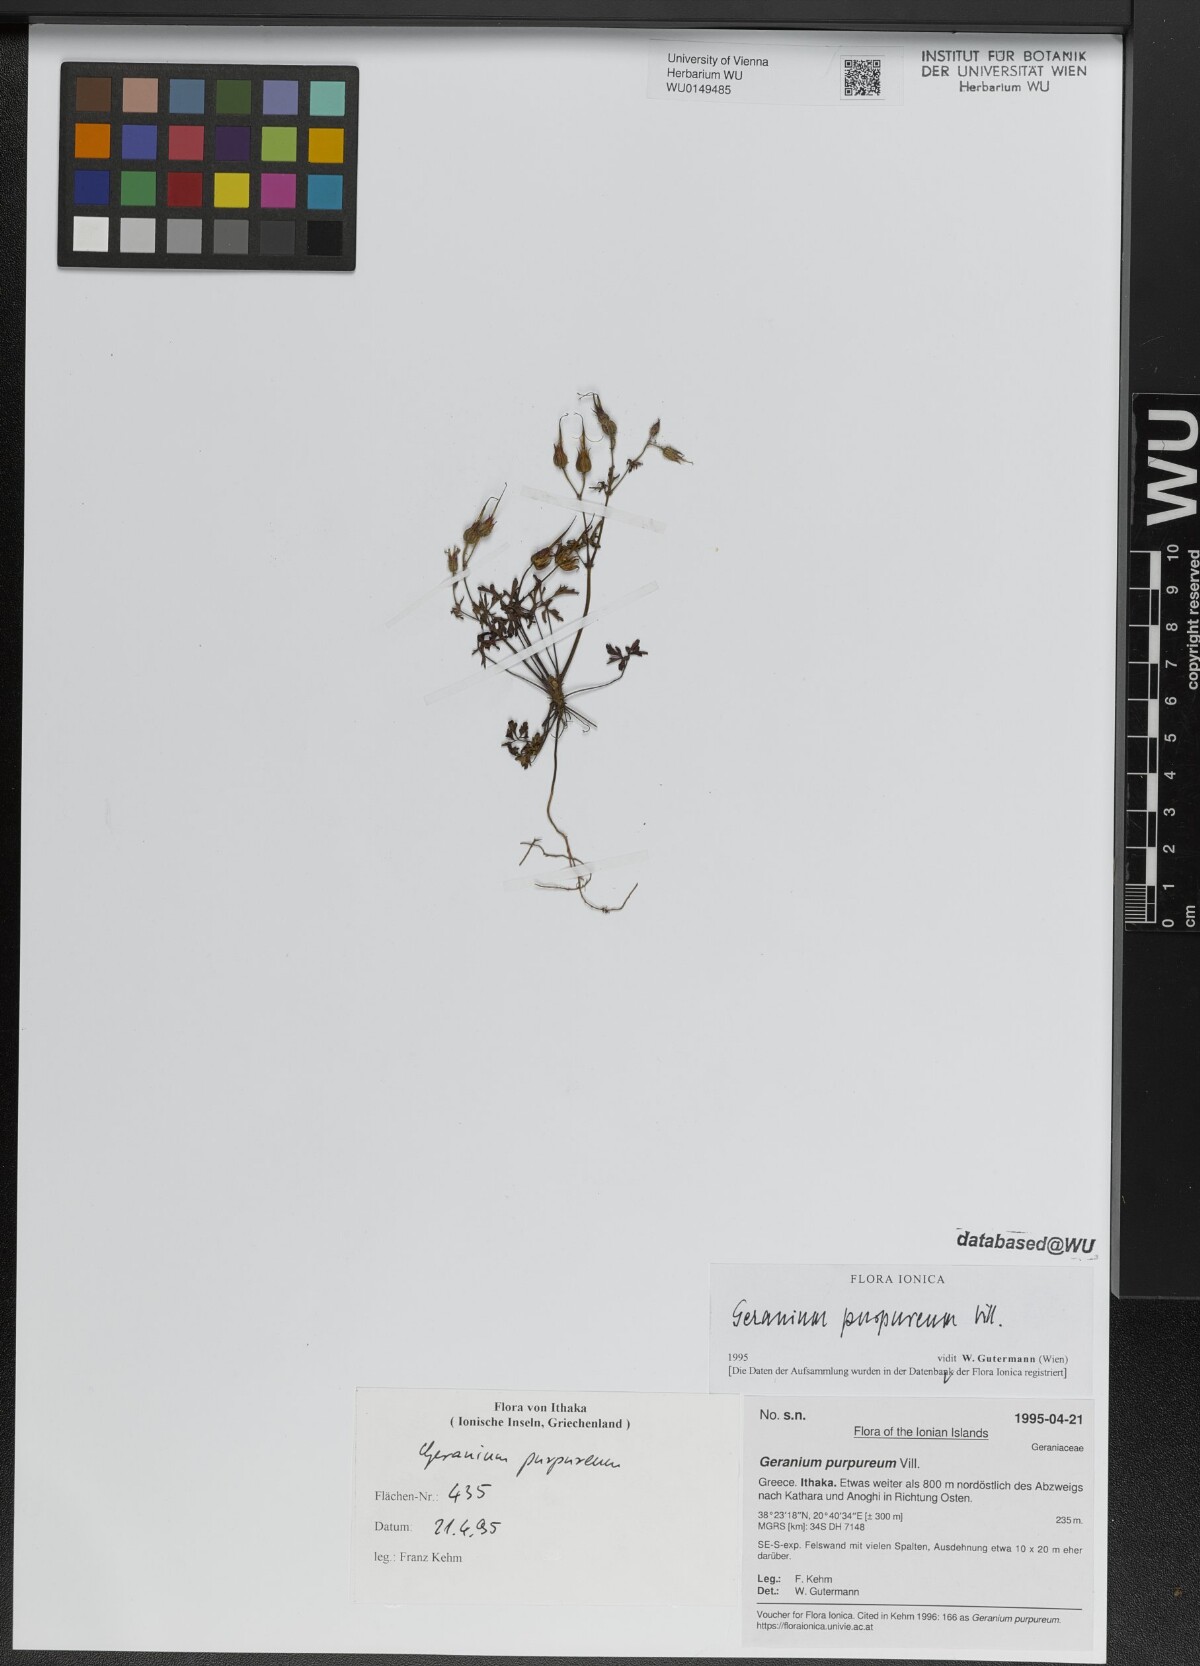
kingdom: Plantae
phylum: Tracheophyta
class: Magnoliopsida
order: Geraniales
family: Geraniaceae
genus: Geranium
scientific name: Geranium purpureum
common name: Little-robin
